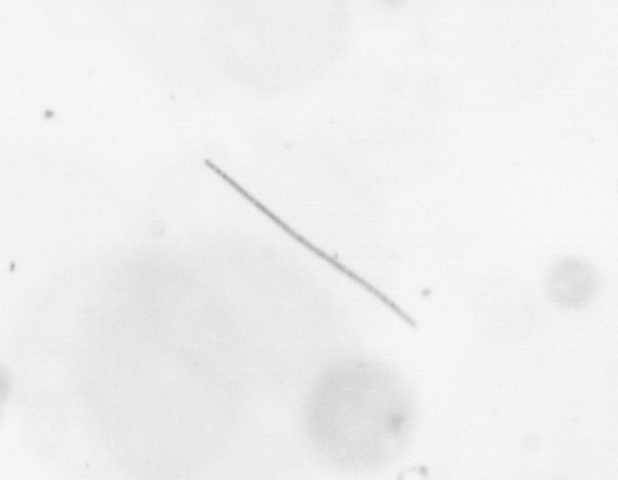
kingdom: Chromista
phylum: Ochrophyta
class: Bacillariophyceae
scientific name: Bacillariophyceae
